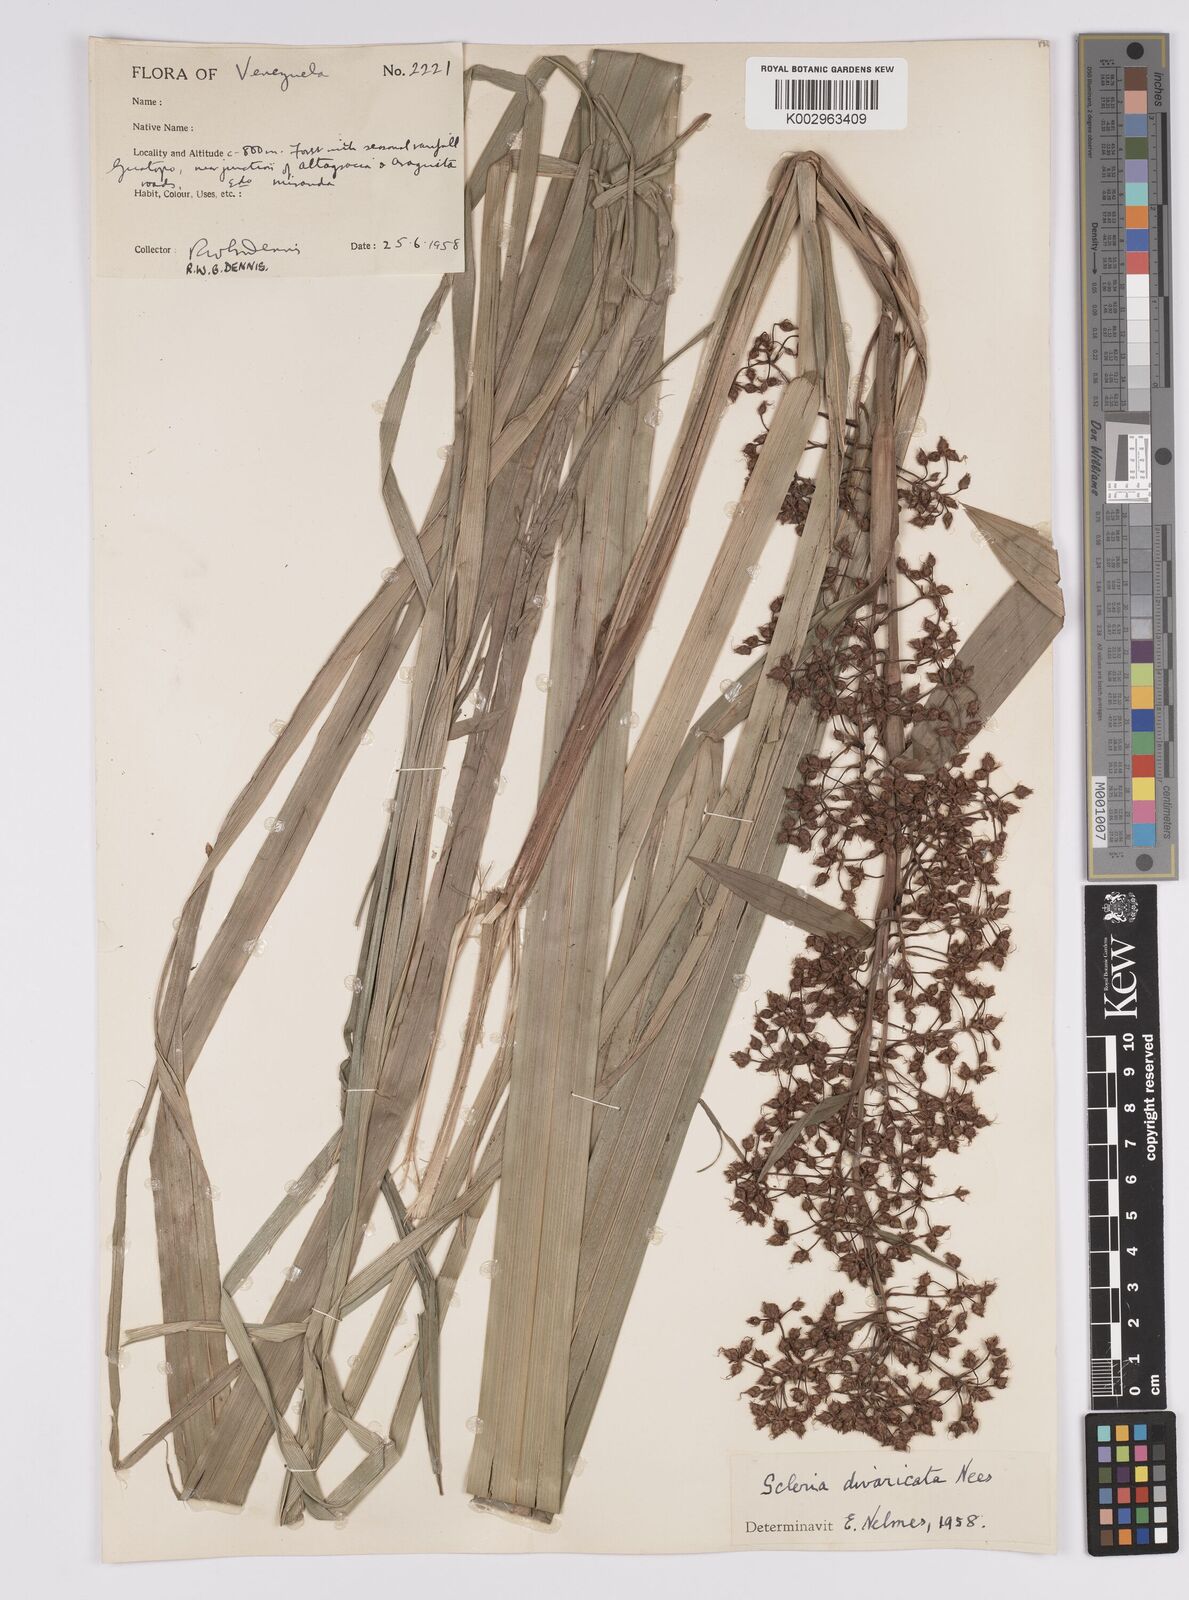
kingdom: Plantae
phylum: Tracheophyta
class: Liliopsida
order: Poales
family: Cyperaceae
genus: Becquerelia
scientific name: Becquerelia cymosa
